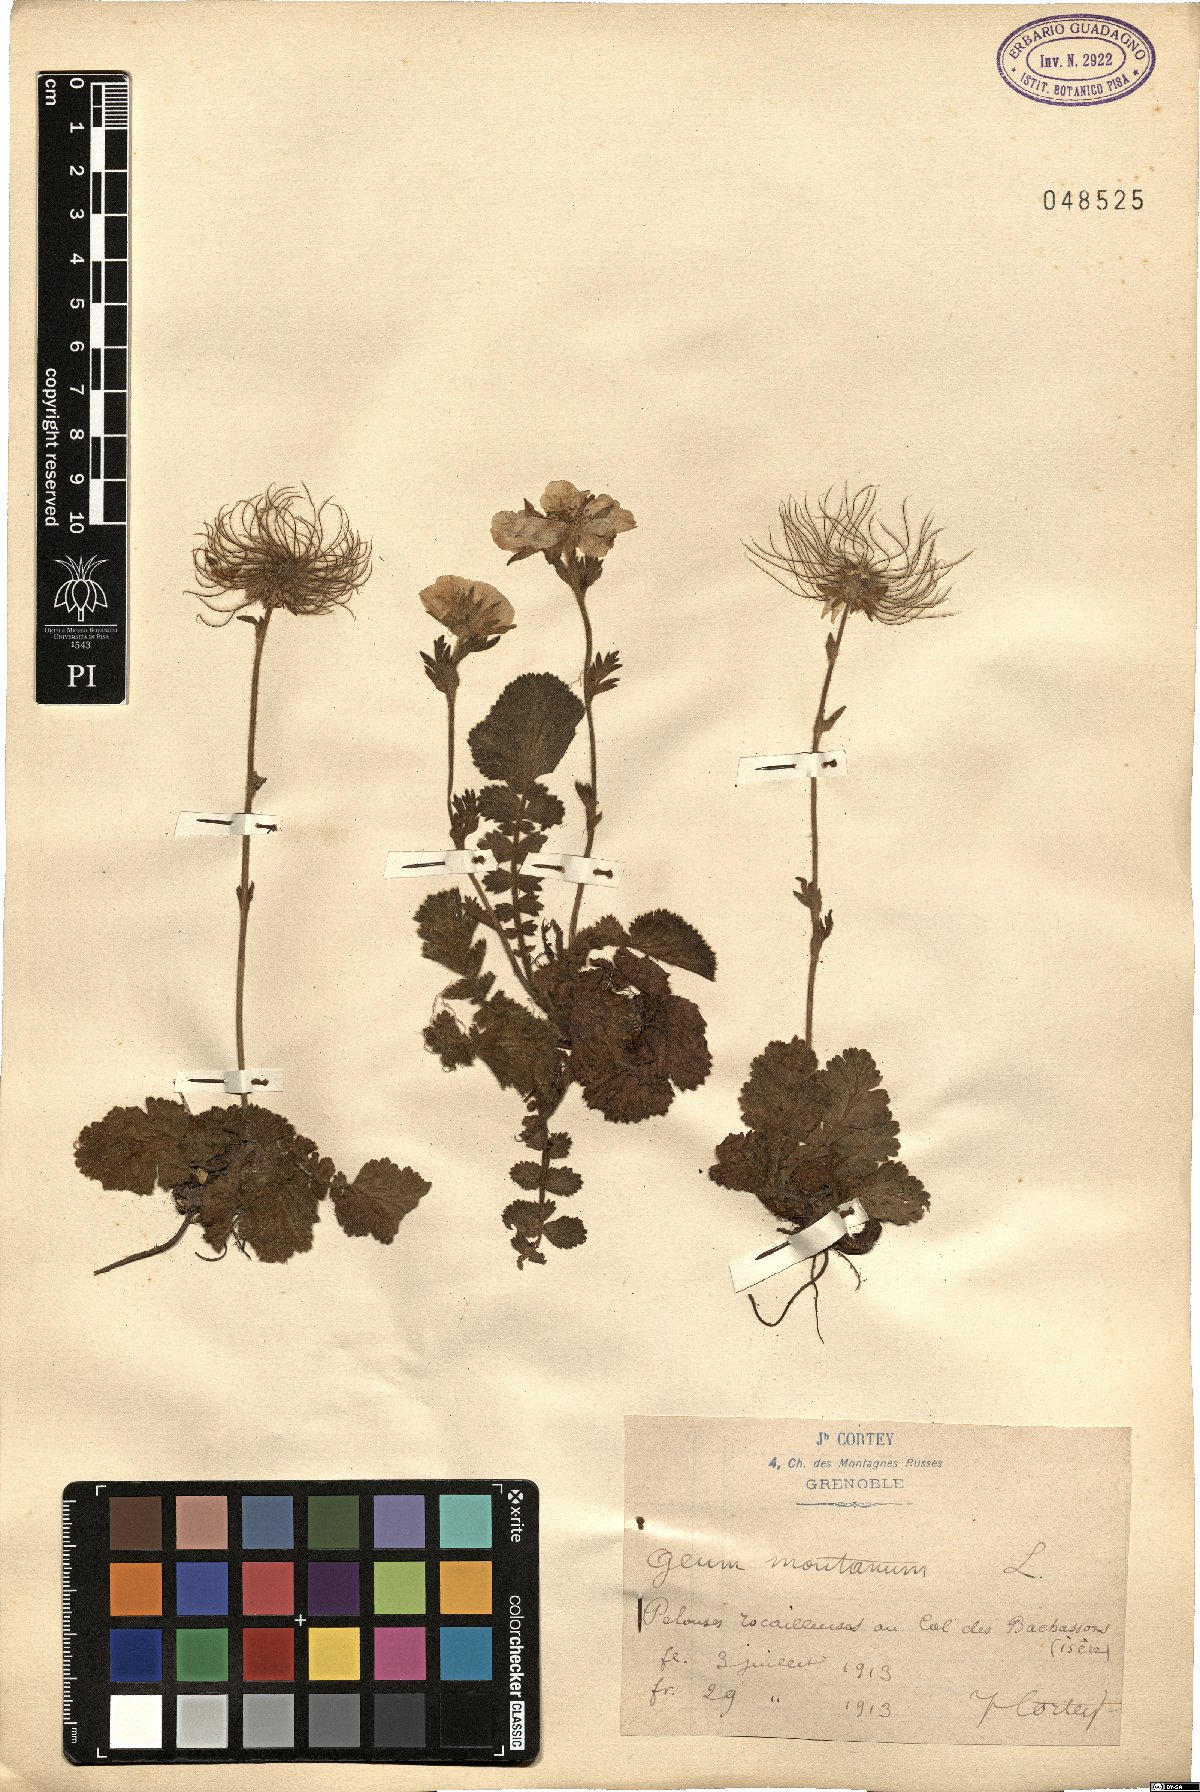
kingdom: Plantae
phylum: Tracheophyta
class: Magnoliopsida
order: Rosales
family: Rosaceae
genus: Geum
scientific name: Geum montanum
